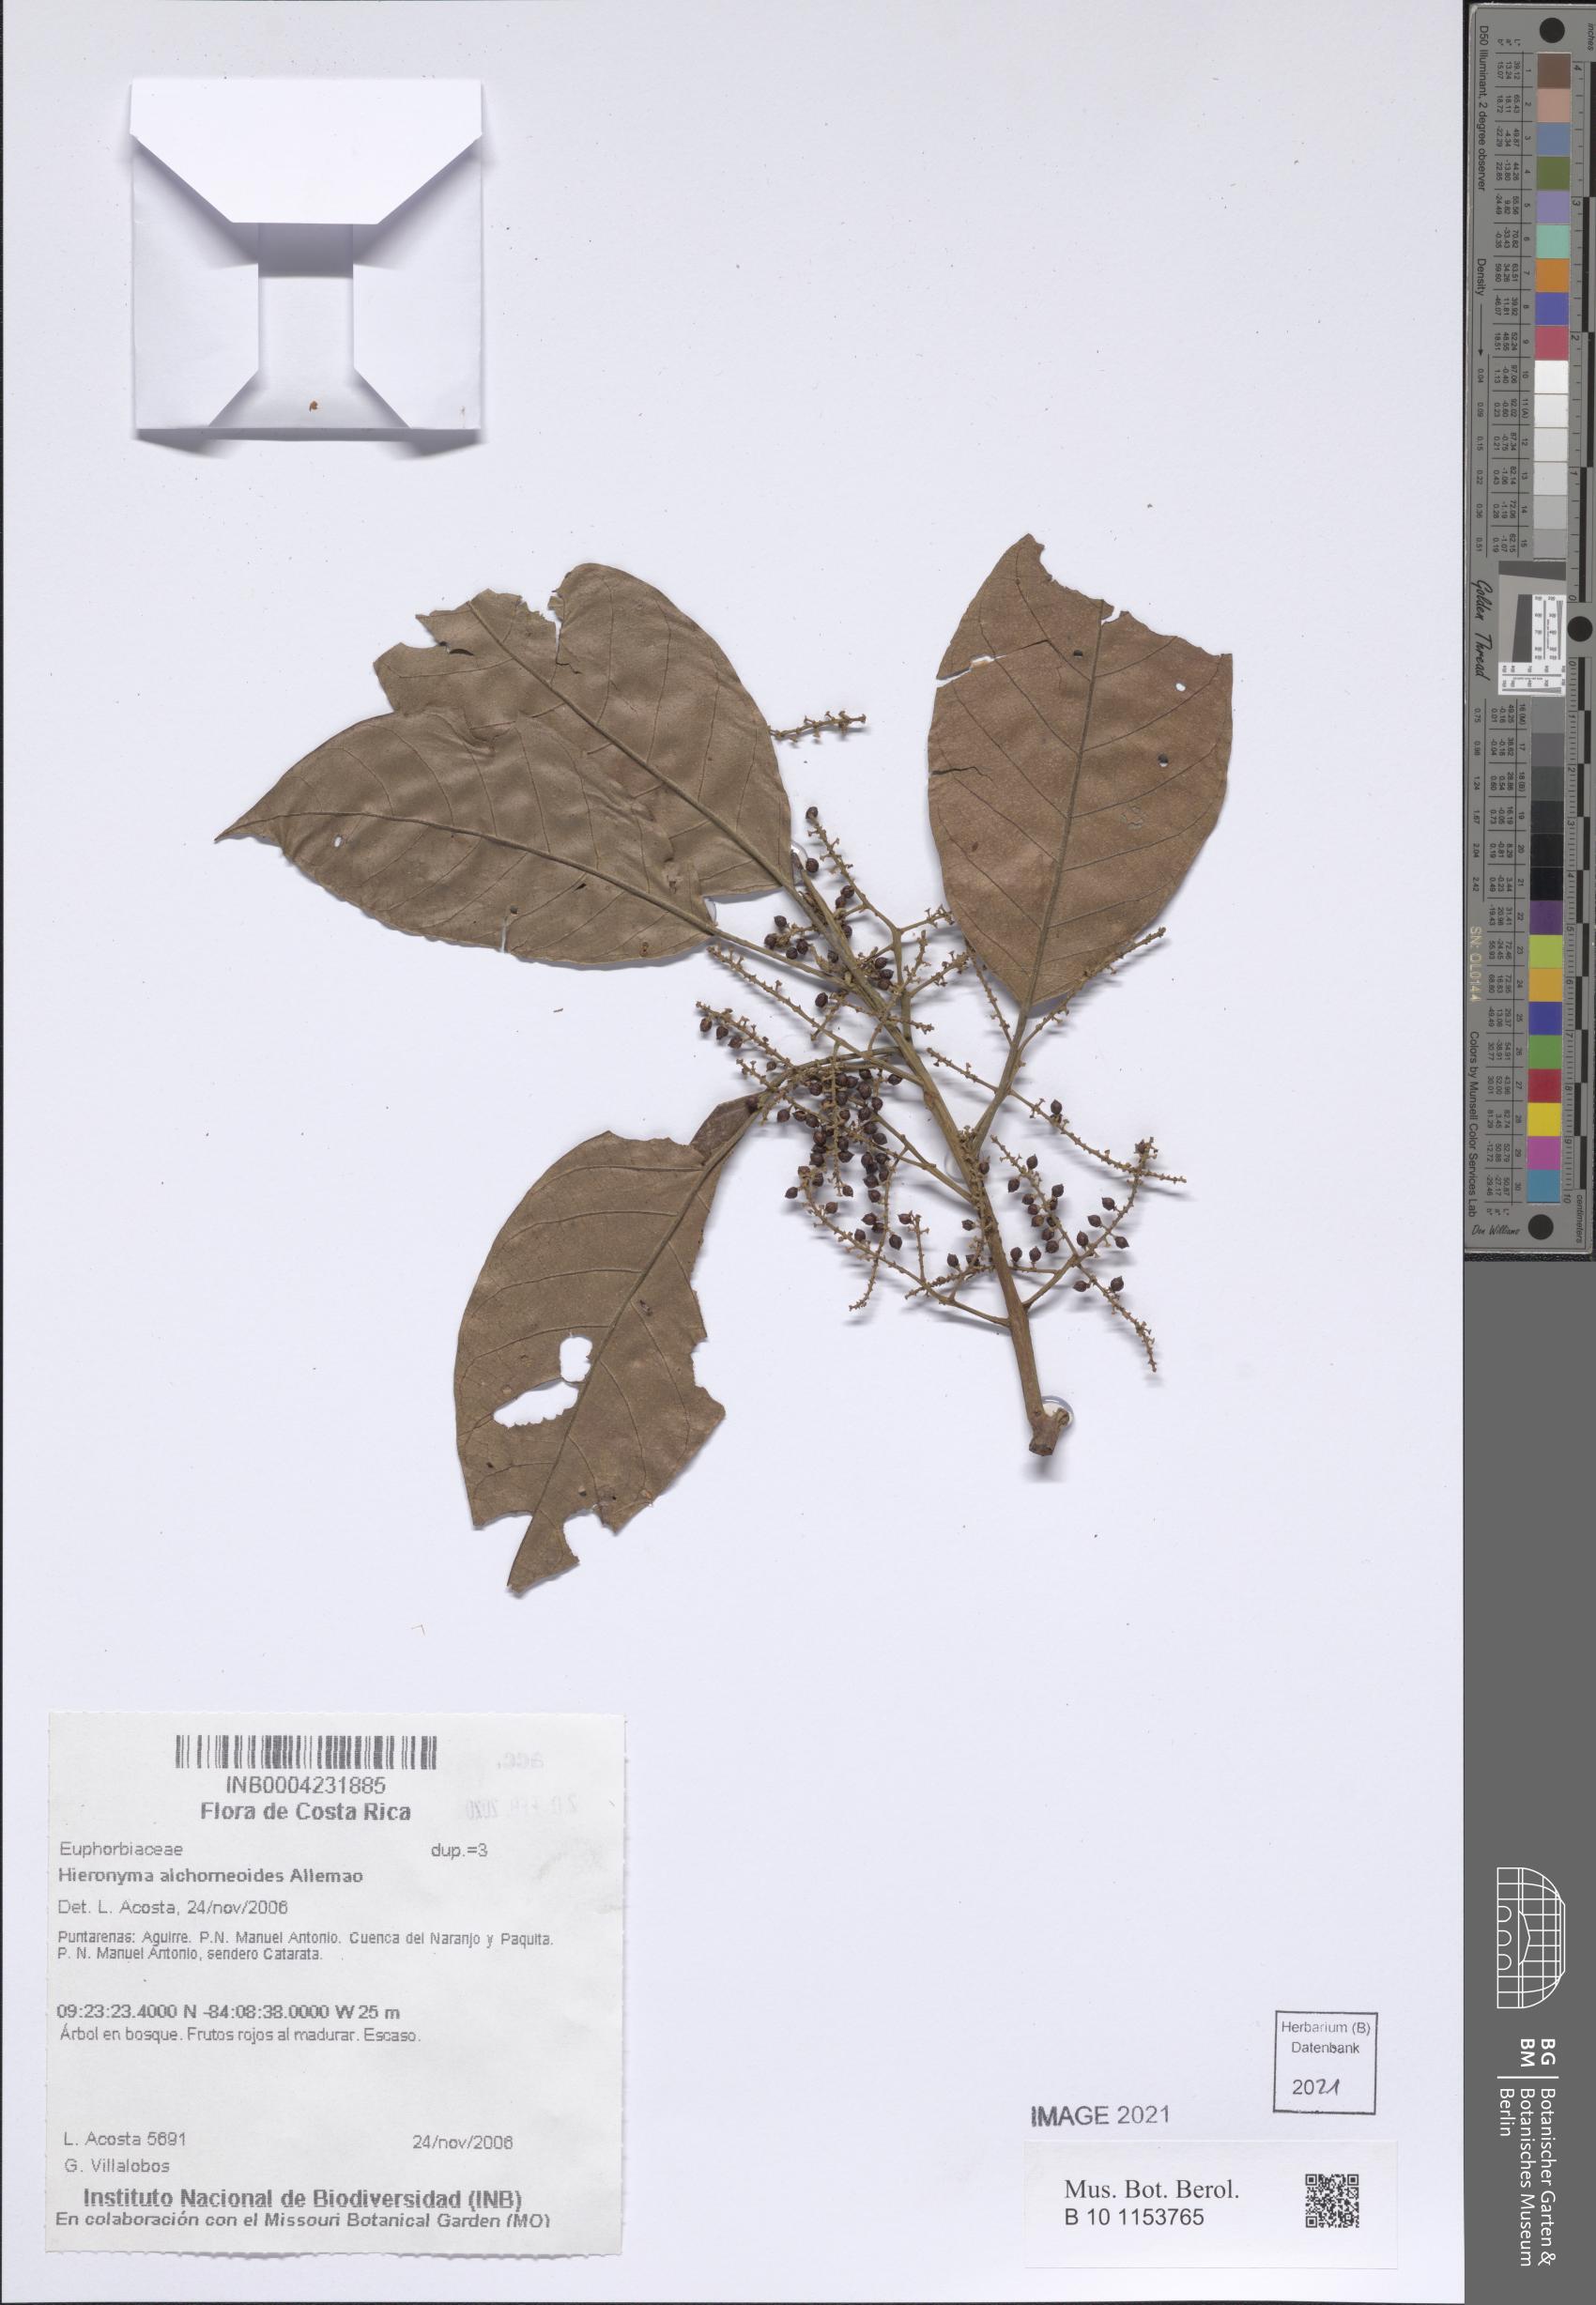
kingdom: Plantae
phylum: Tracheophyta
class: Magnoliopsida
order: Malpighiales
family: Phyllanthaceae
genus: Hieronyma
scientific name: Hieronyma alchorneoides
